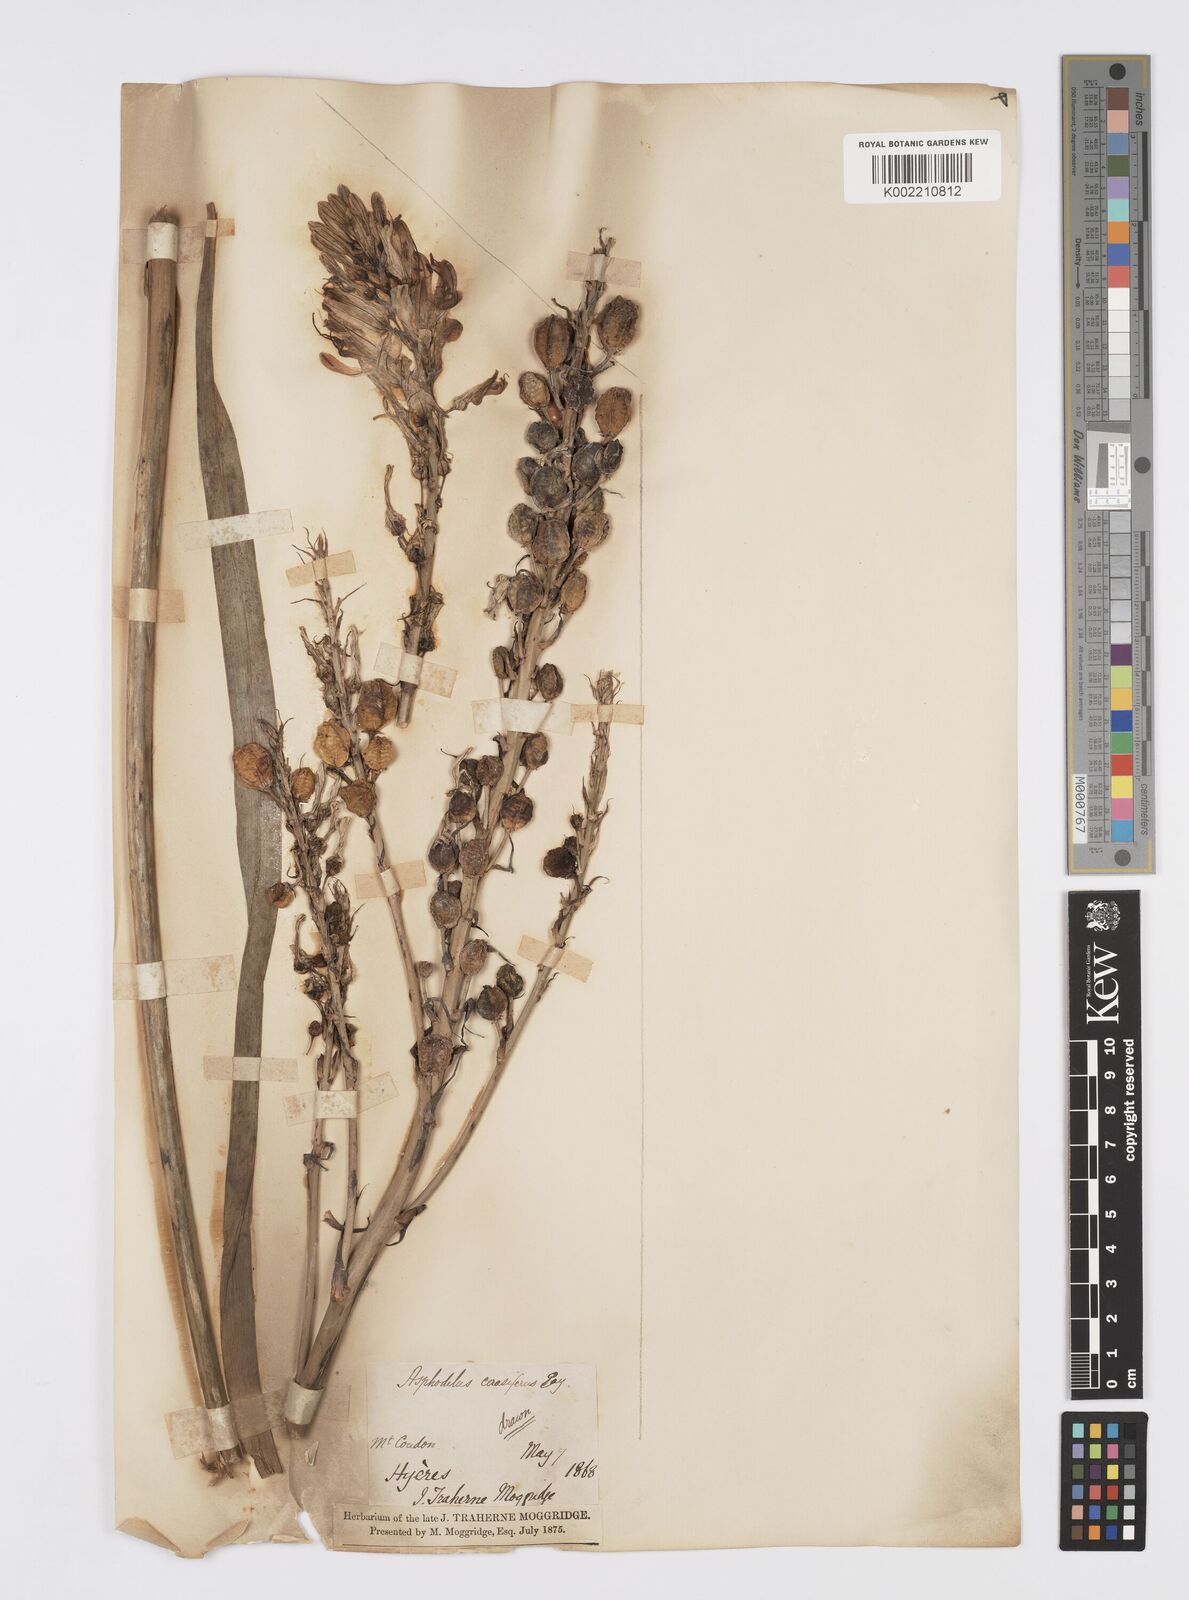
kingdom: Plantae
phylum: Tracheophyta
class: Liliopsida
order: Asparagales
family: Asphodelaceae
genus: Asphodelus
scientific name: Asphodelus cerasifer
